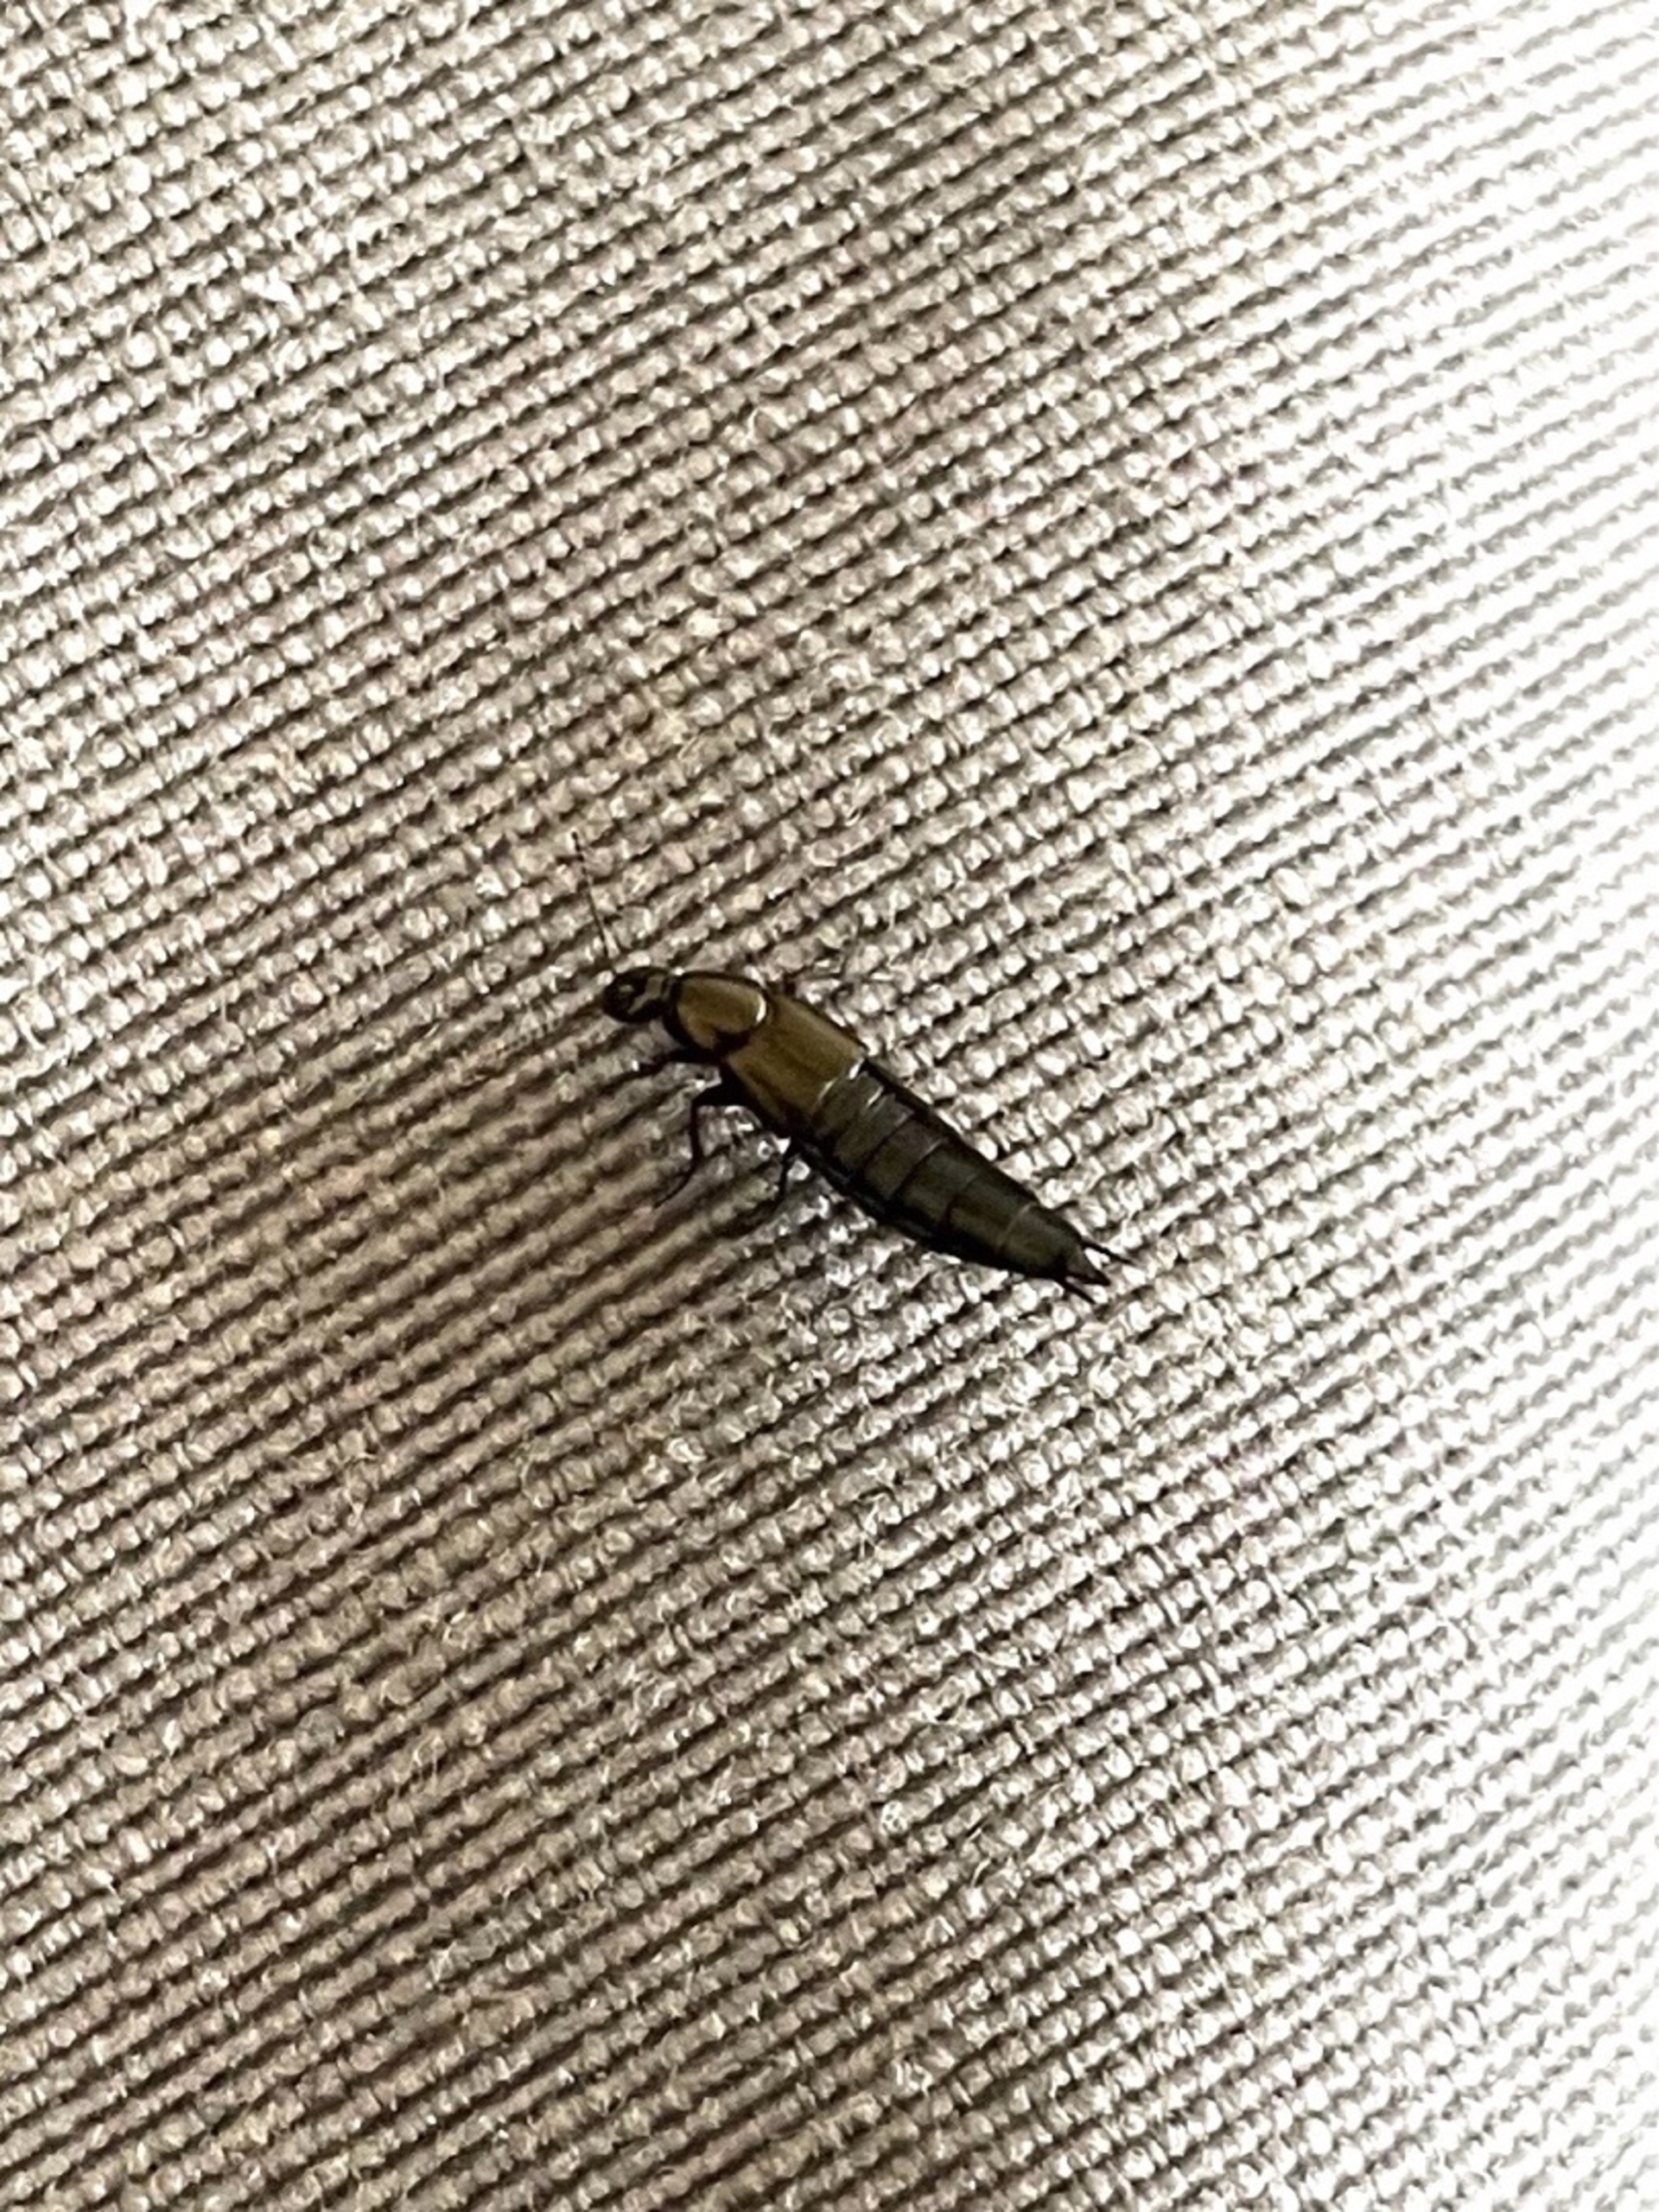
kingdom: Animalia
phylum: Arthropoda
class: Insecta
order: Coleoptera
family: Staphylinidae
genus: Philonthus
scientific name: Philonthus
